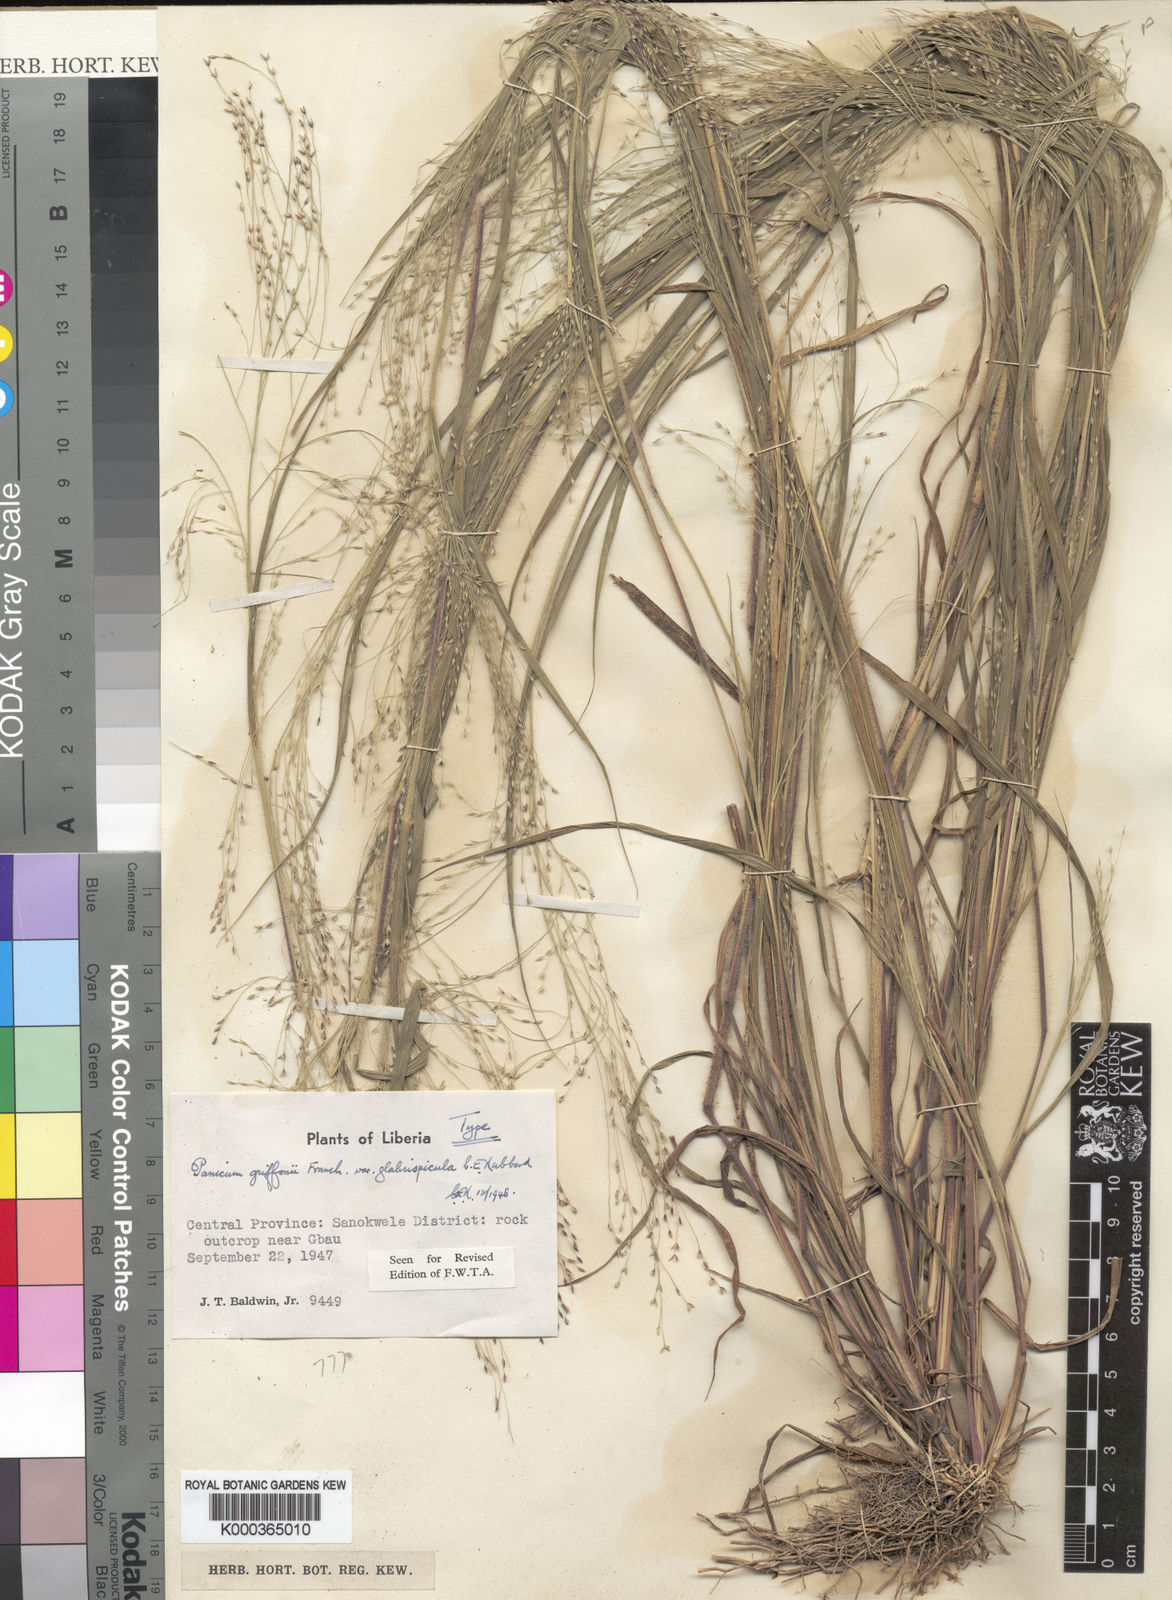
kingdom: Plantae
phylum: Tracheophyta
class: Liliopsida
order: Poales
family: Poaceae
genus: Panicum
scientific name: Panicum griffonii
